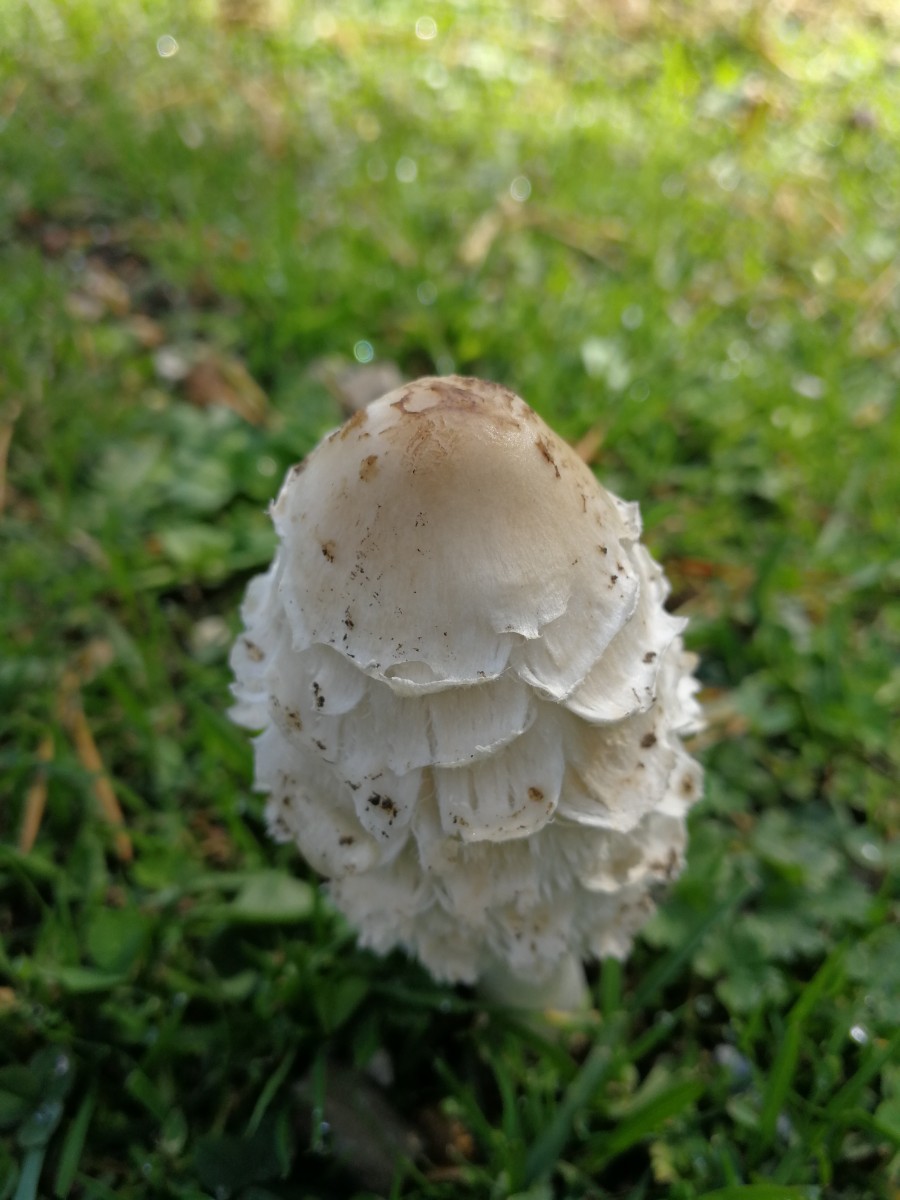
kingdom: Fungi
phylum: Basidiomycota
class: Agaricomycetes
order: Agaricales
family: Agaricaceae
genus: Coprinus
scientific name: Coprinus comatus
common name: stor parykhat
